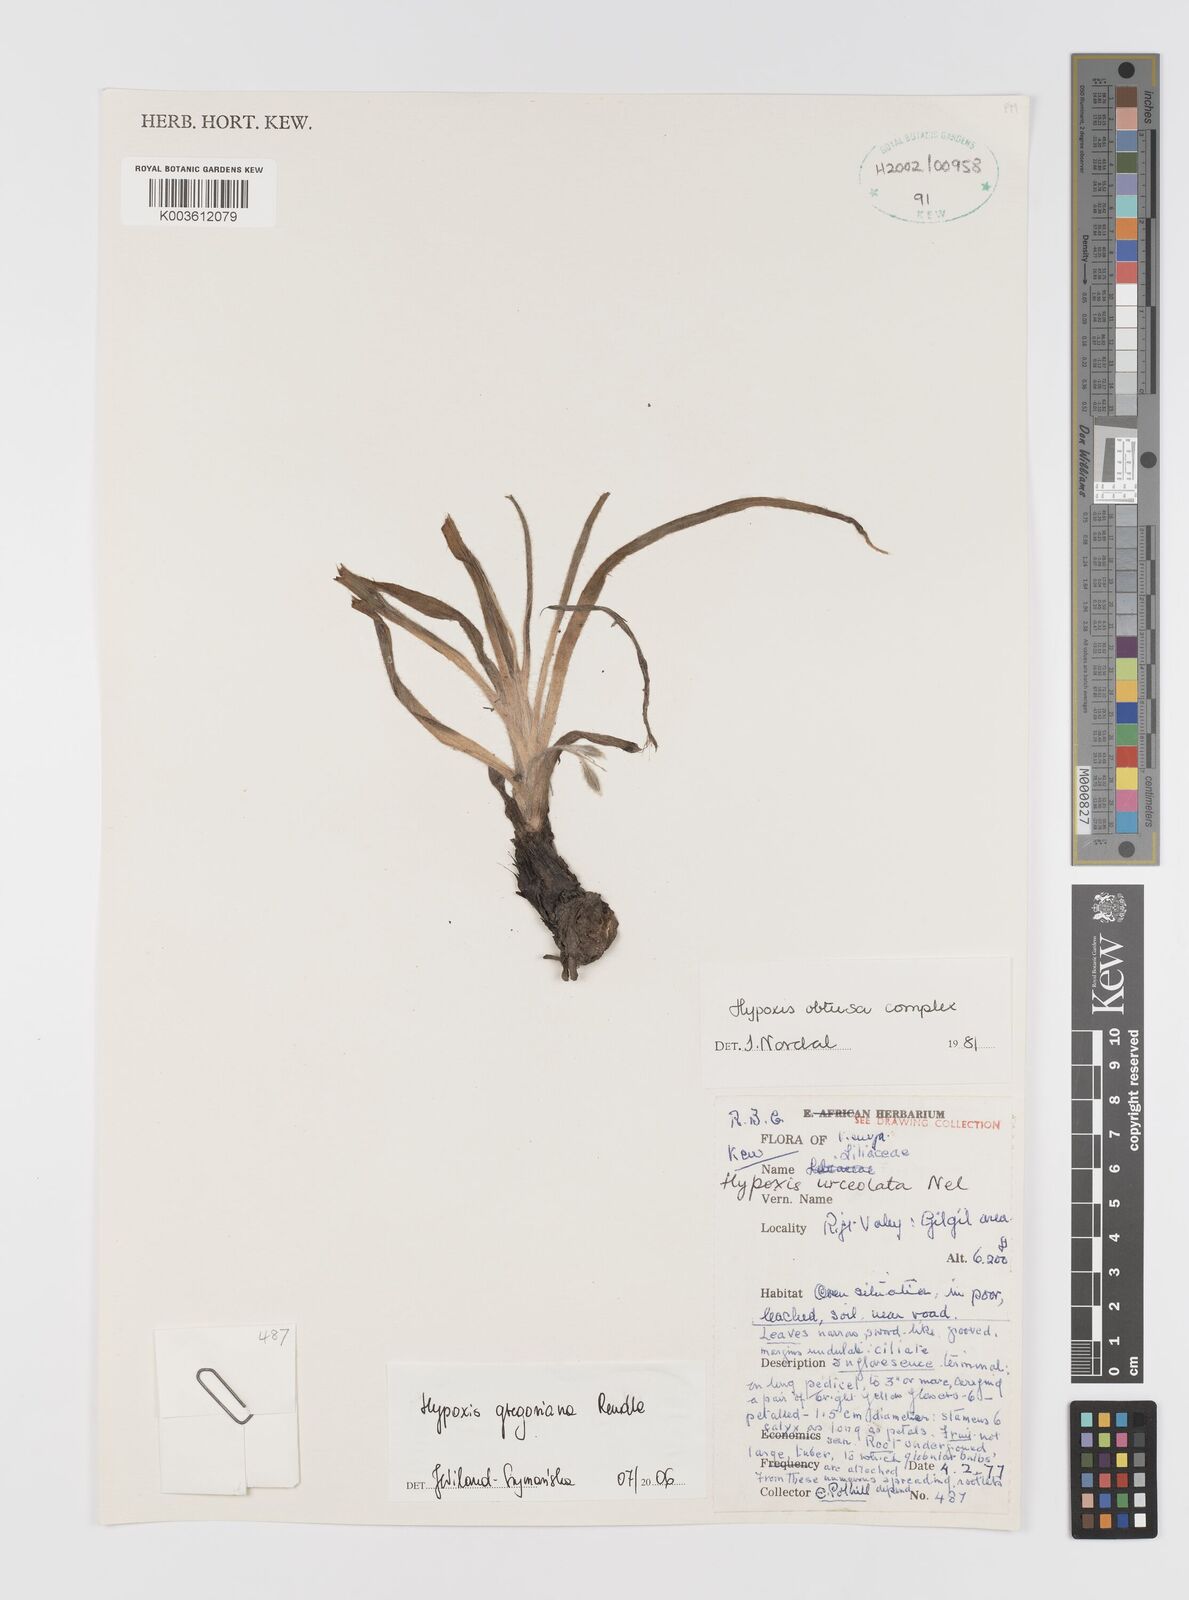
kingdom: Plantae
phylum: Tracheophyta
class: Liliopsida
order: Asparagales
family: Hypoxidaceae
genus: Hypoxis
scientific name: Hypoxis gregoriana
